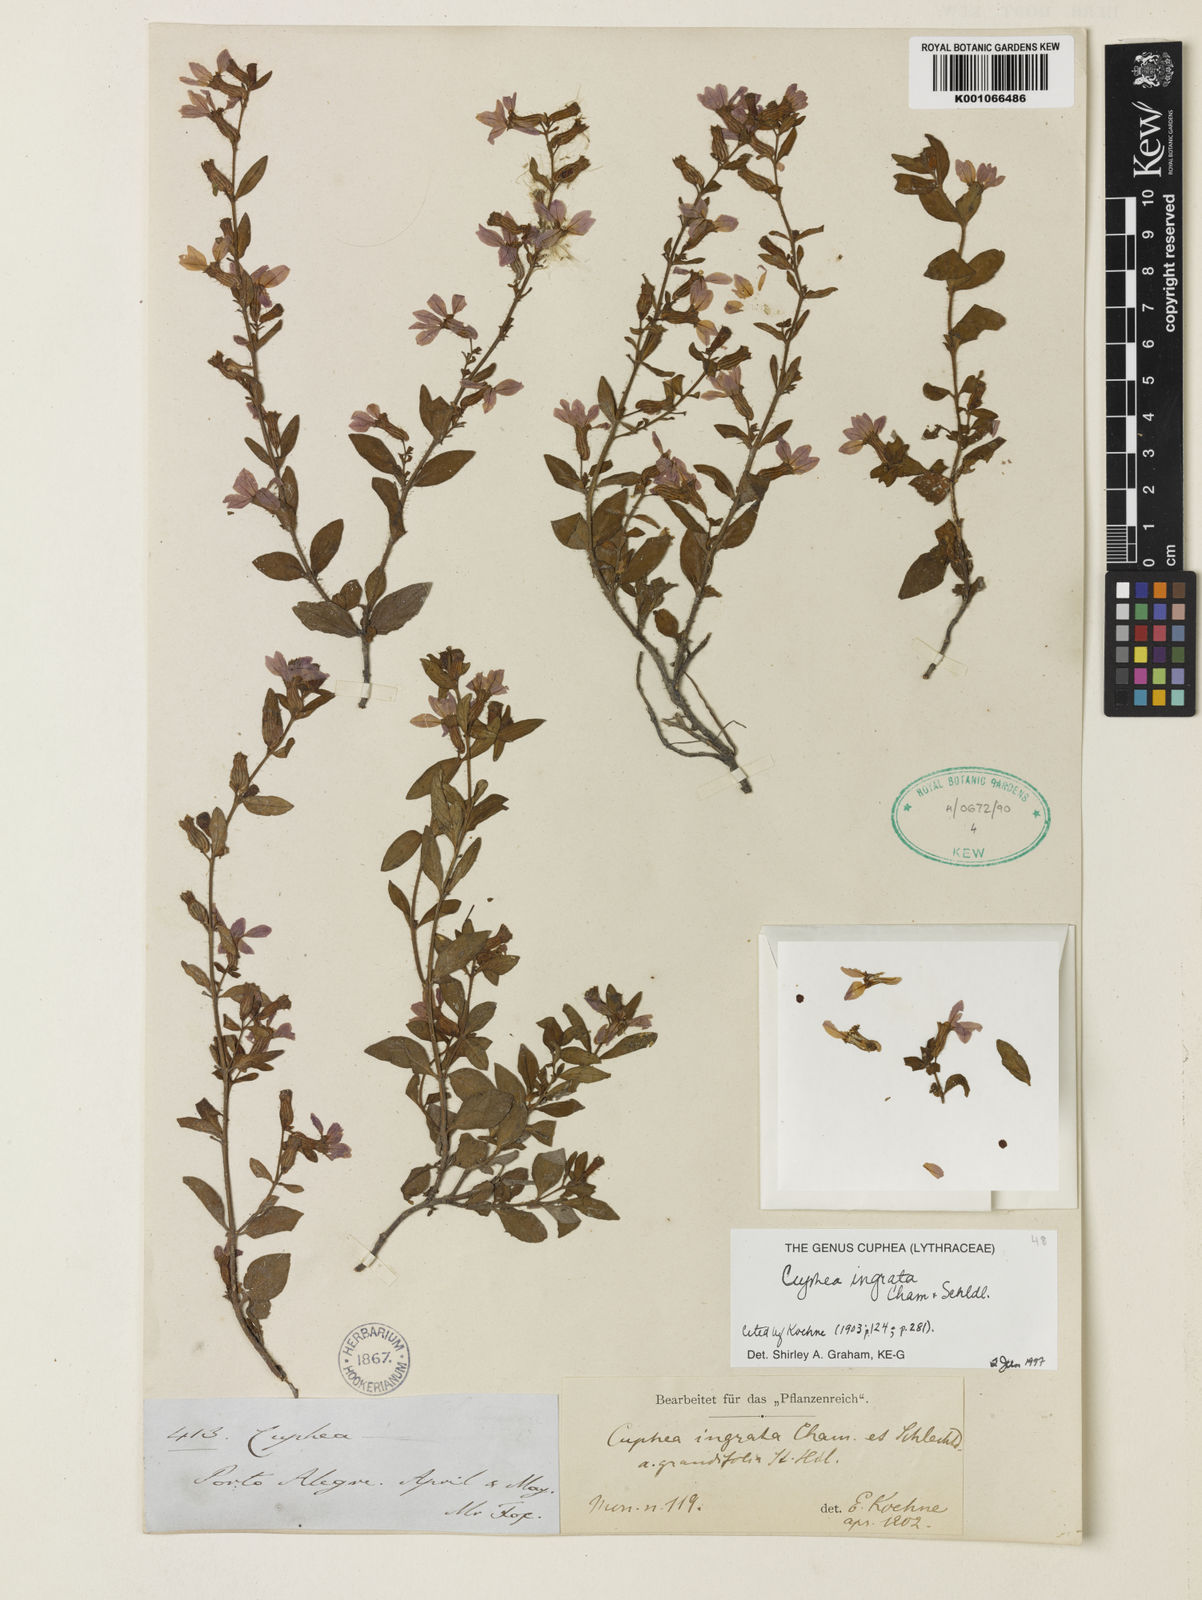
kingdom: Plantae
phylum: Tracheophyta
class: Magnoliopsida
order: Myrtales
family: Lythraceae
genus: Cuphea
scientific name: Cuphea ingrata
